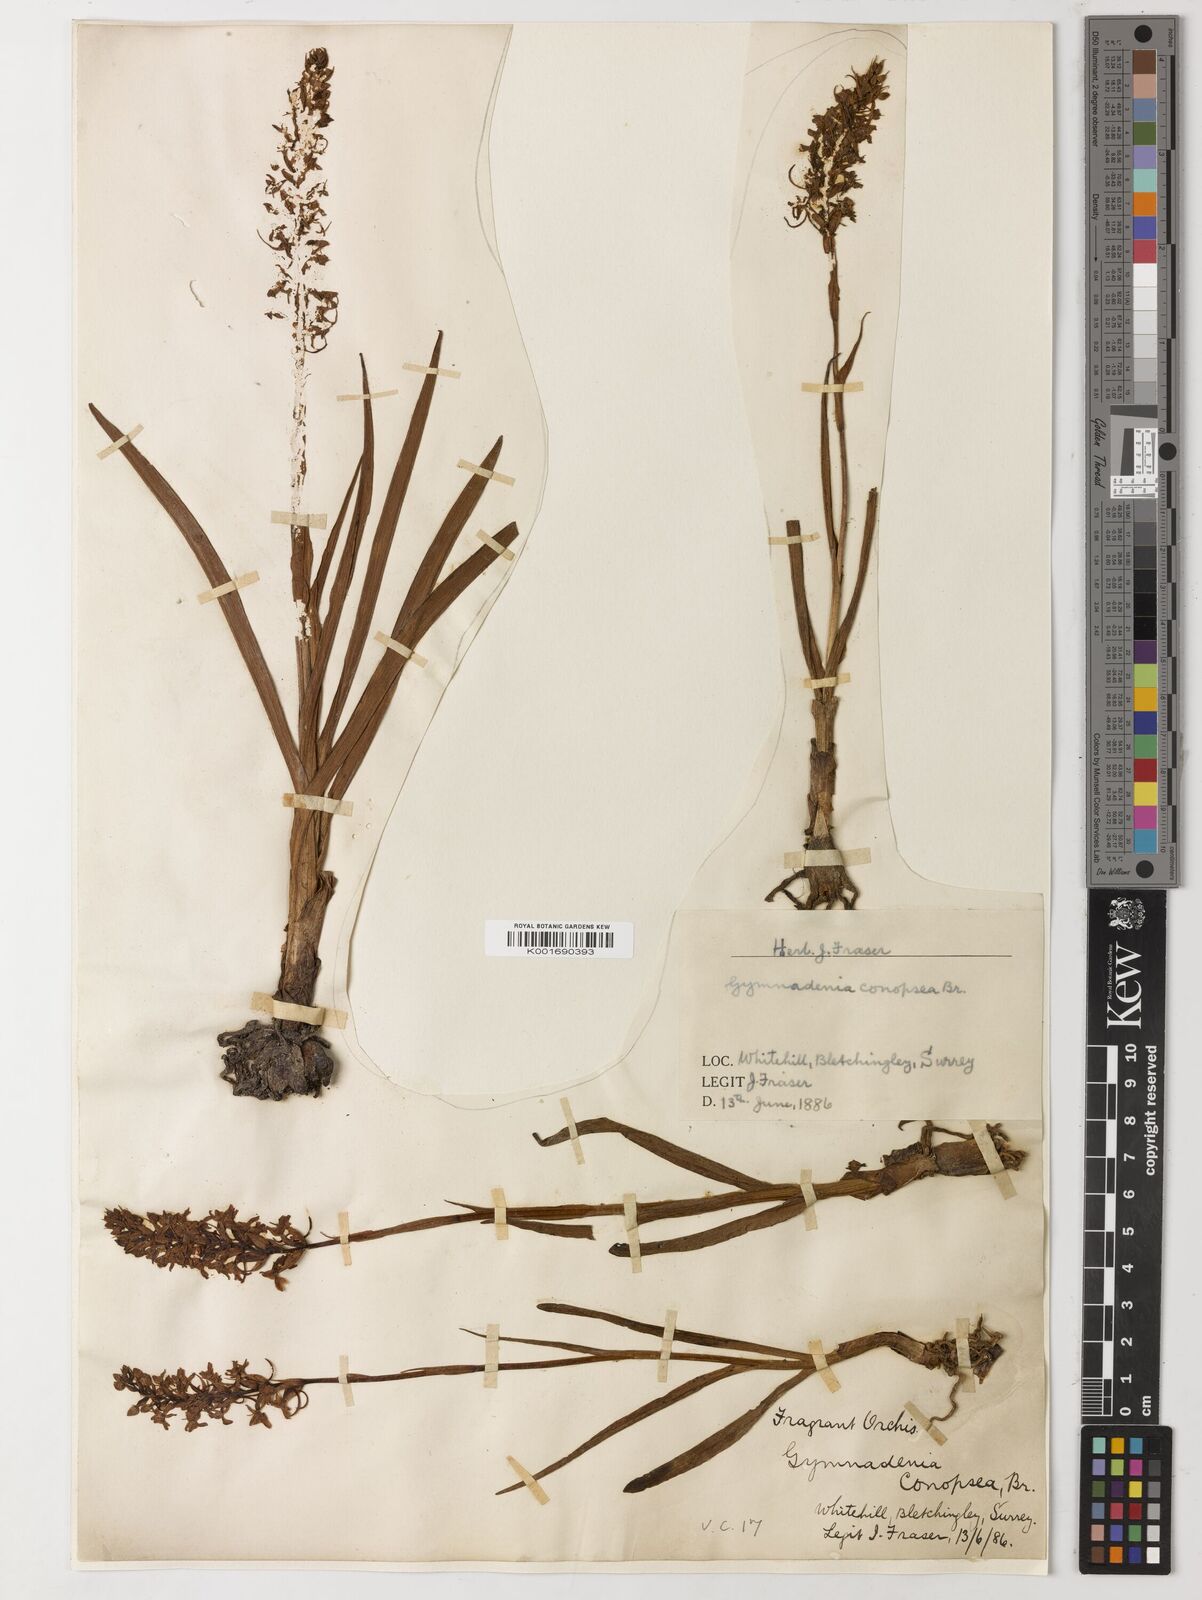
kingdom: Plantae
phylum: Tracheophyta
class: Magnoliopsida
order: Fabales
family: Fabaceae
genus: Zollernia
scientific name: Zollernia glabra
